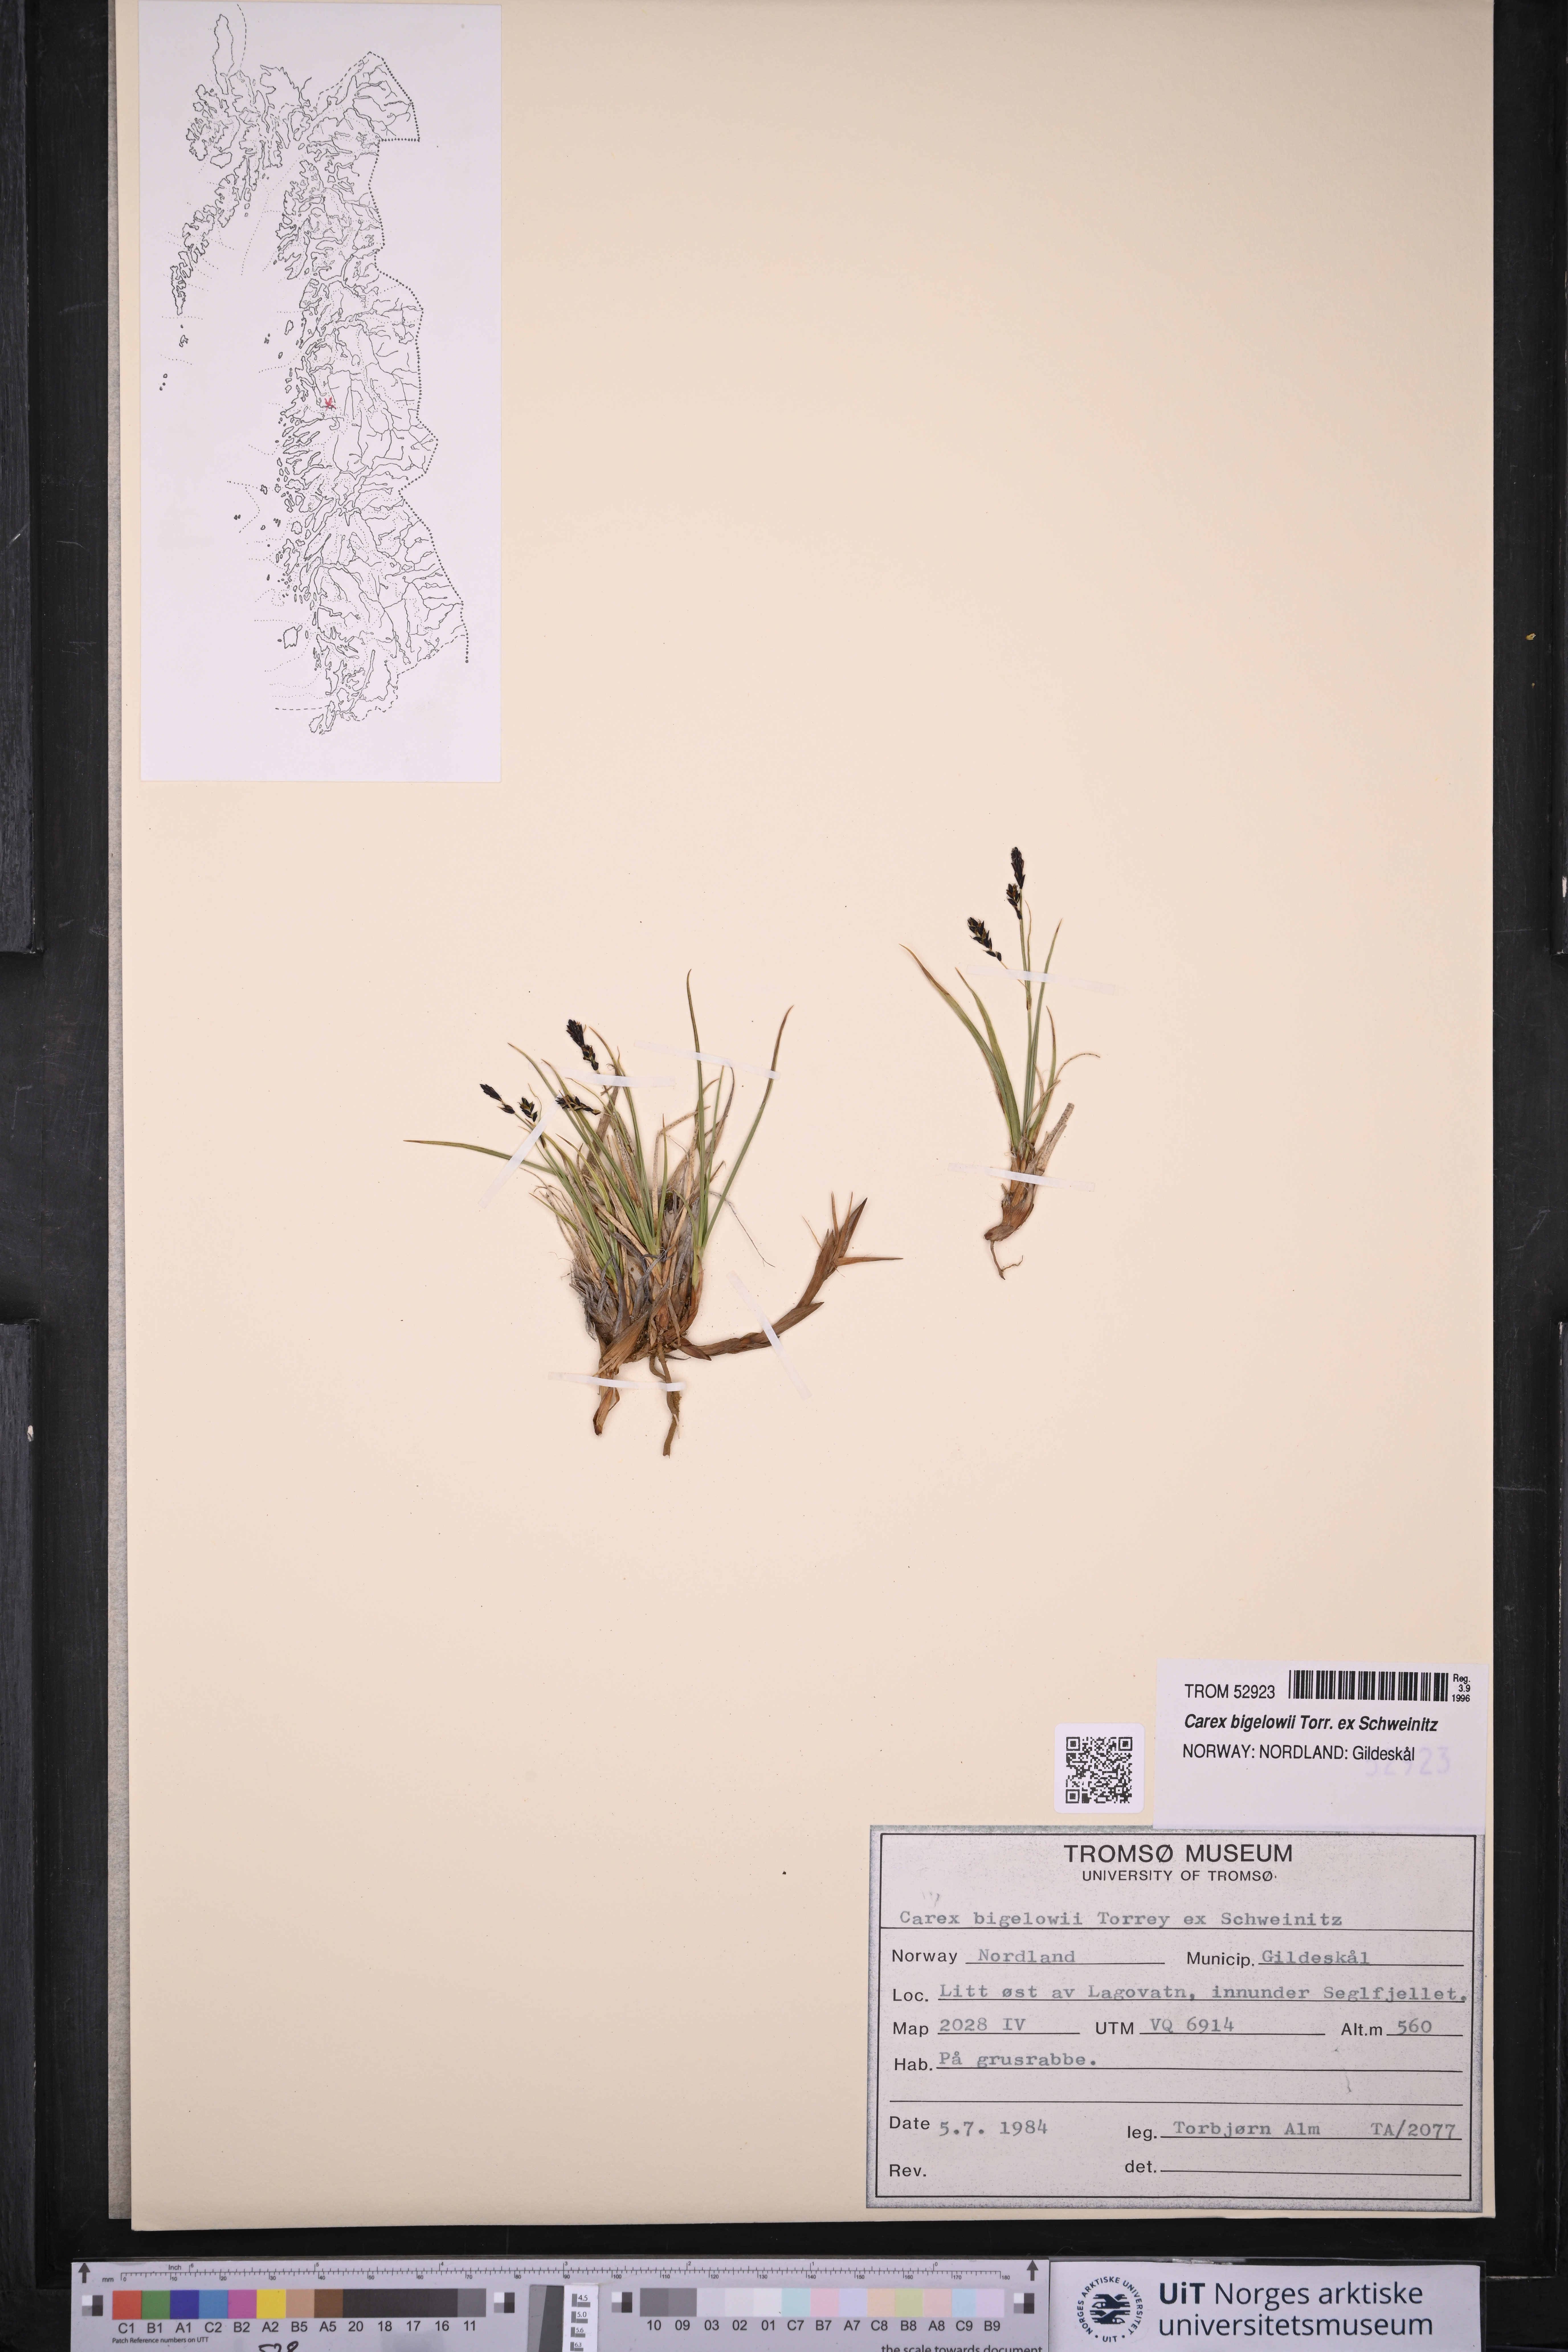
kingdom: Plantae
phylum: Tracheophyta
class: Liliopsida
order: Poales
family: Cyperaceae
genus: Carex
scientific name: Carex bigelowii
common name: Stiff sedge
